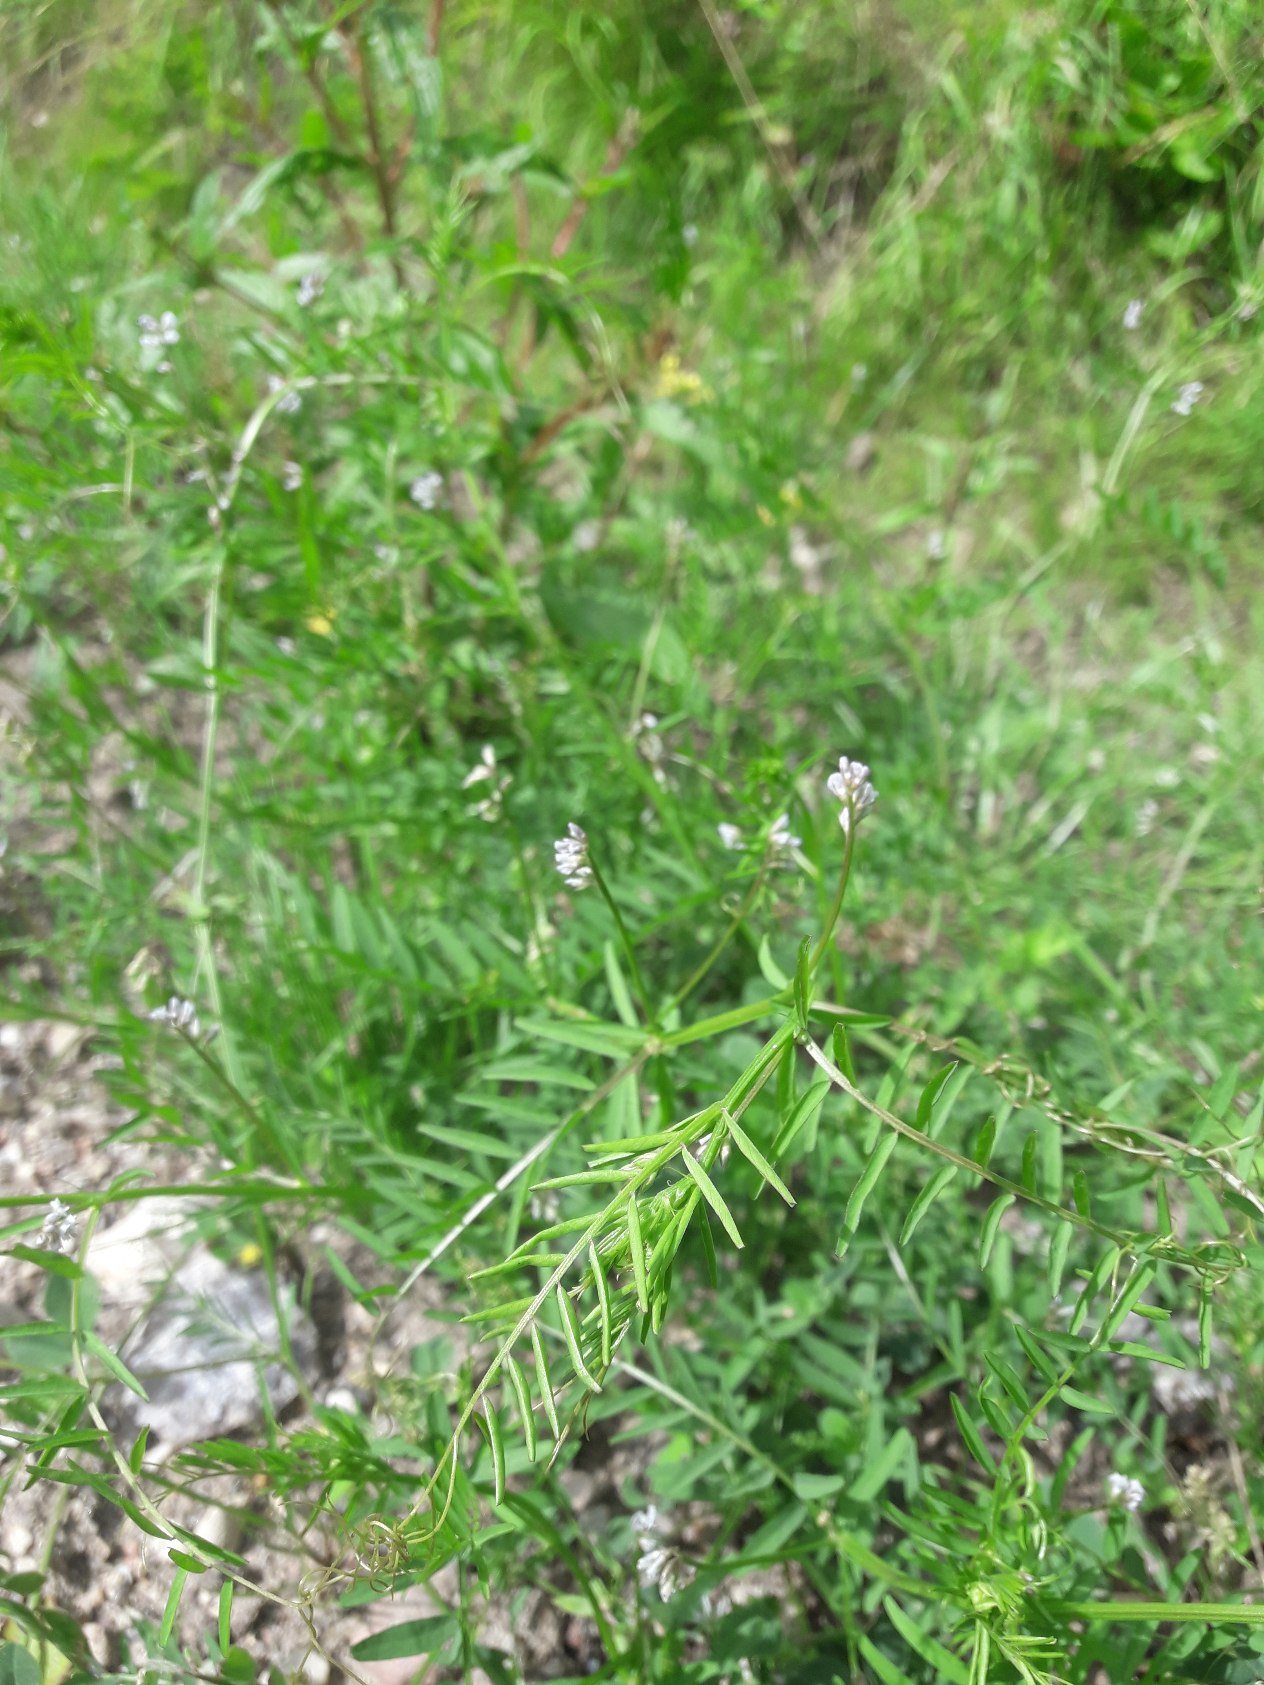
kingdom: Plantae
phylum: Tracheophyta
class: Magnoliopsida
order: Fabales
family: Fabaceae
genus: Vicia
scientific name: Vicia hirsuta
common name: Tofrøet vikke
